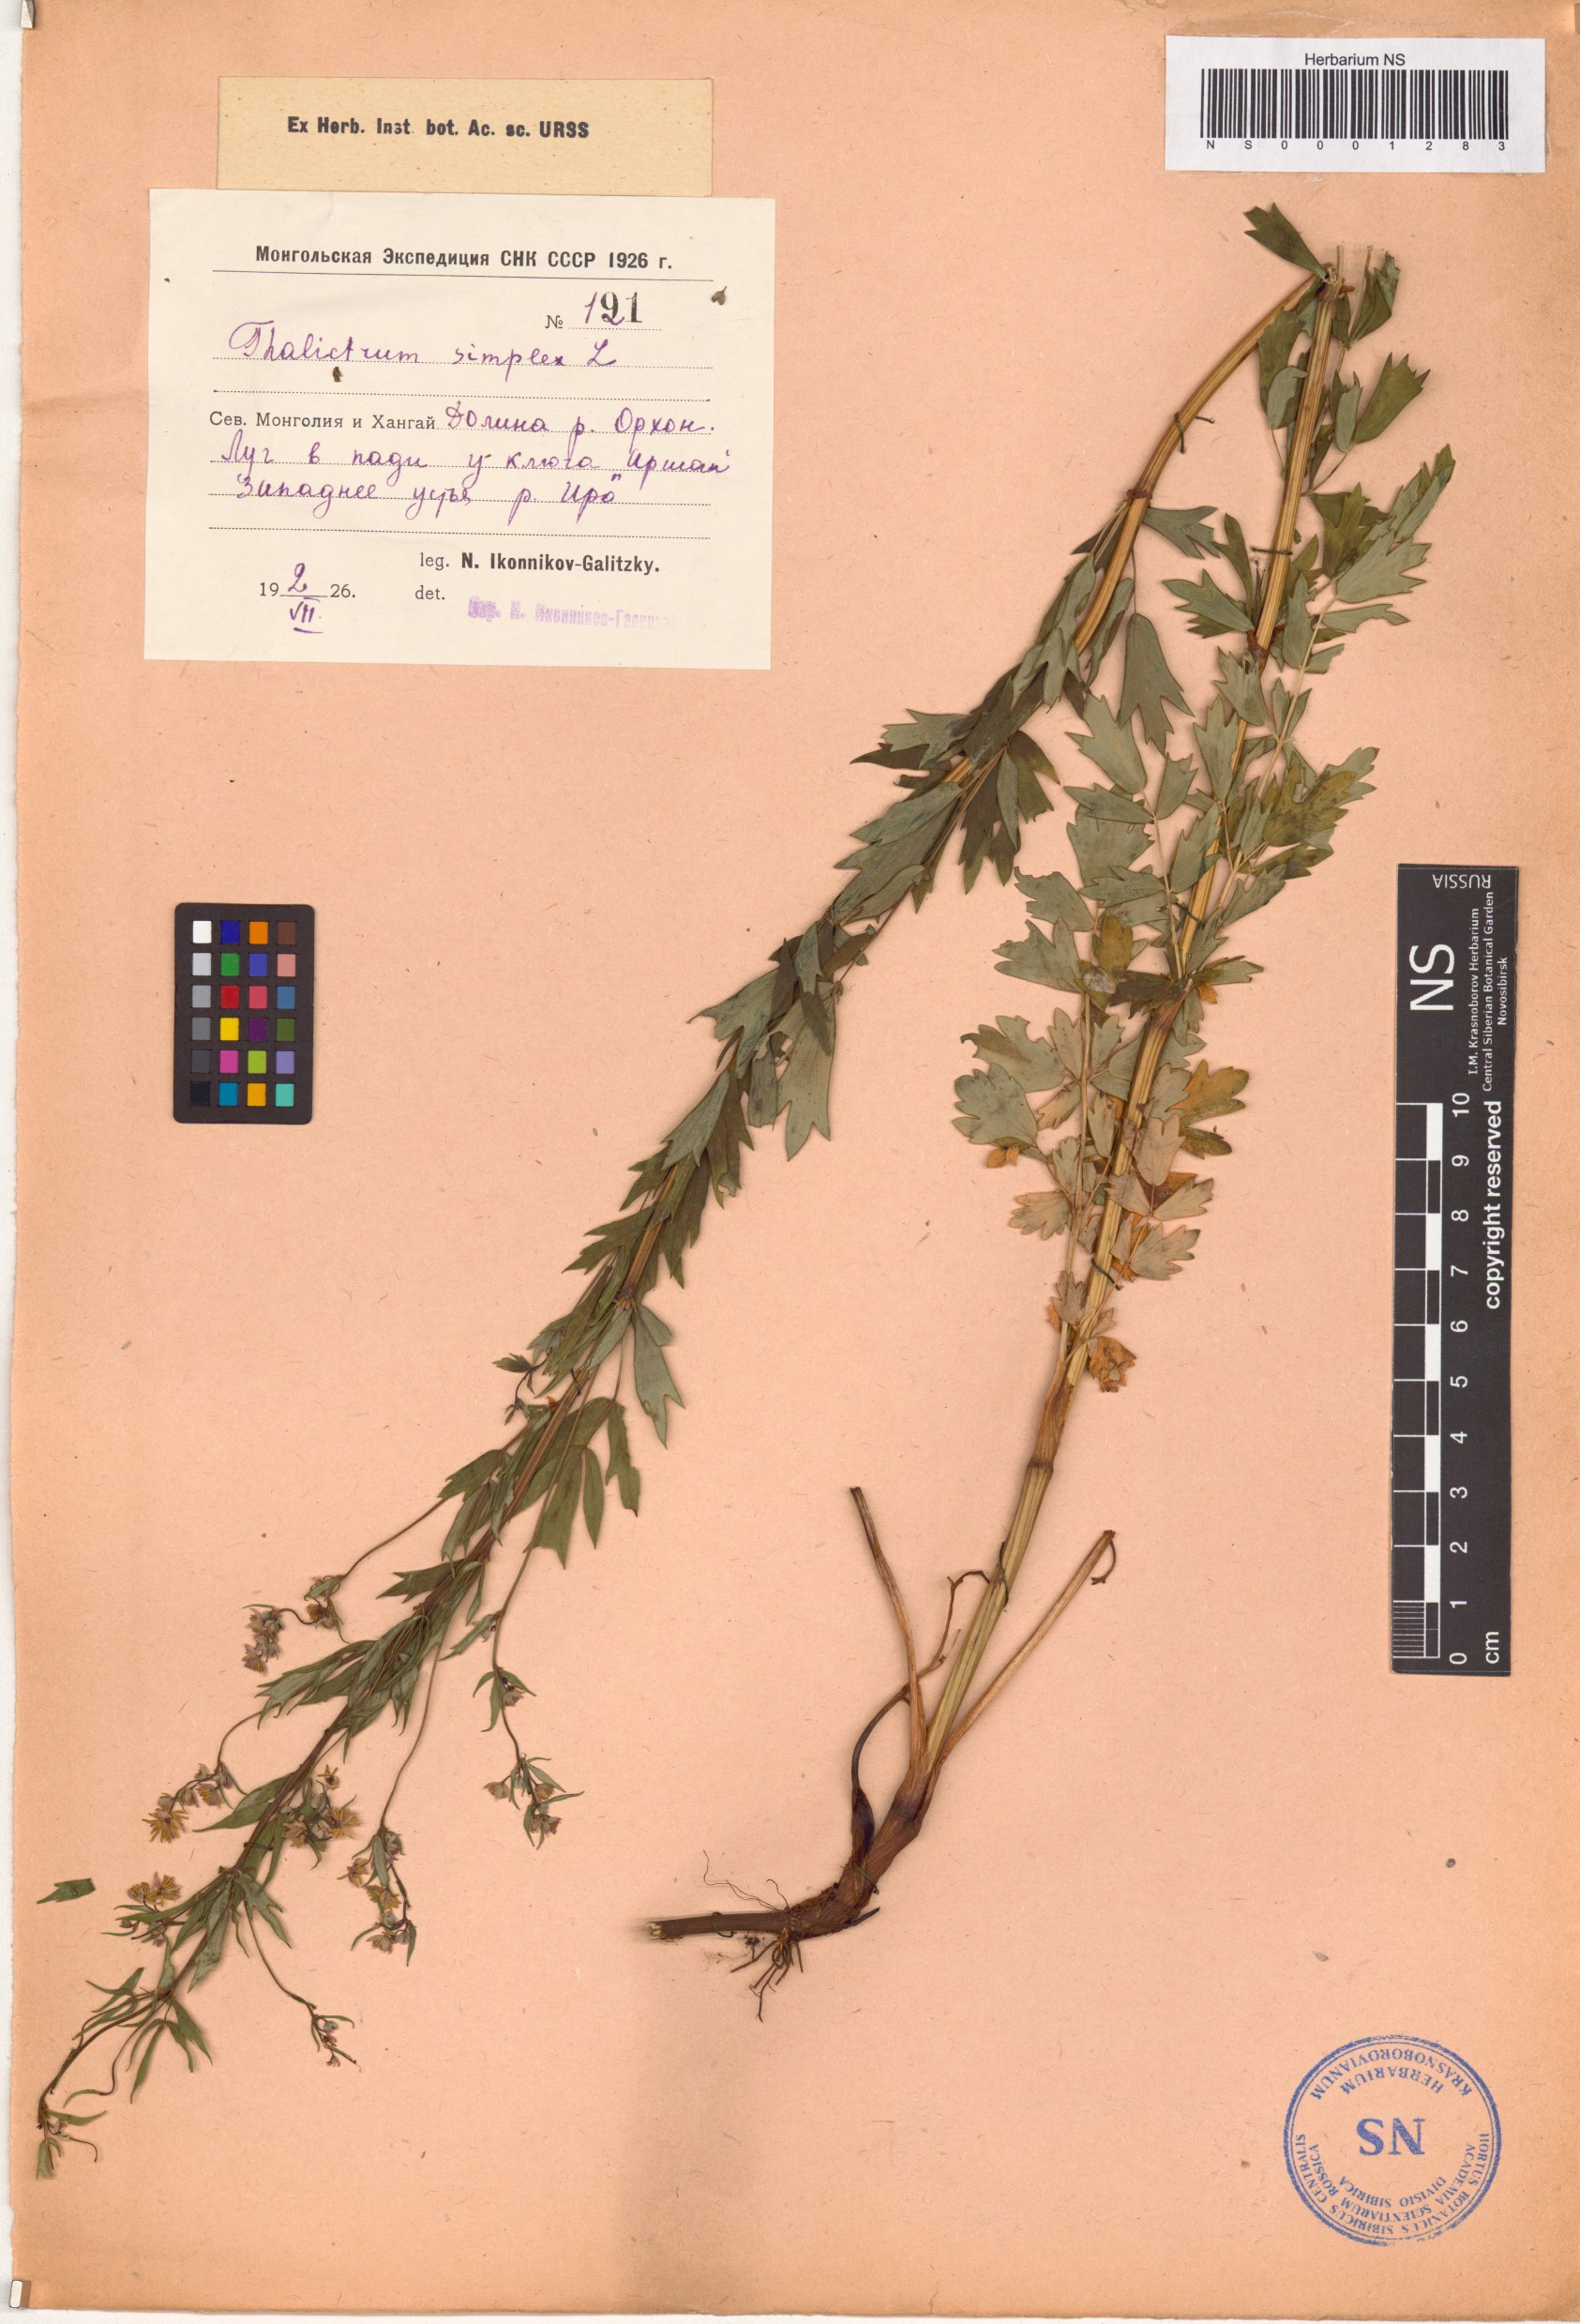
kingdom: Plantae
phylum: Tracheophyta
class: Magnoliopsida
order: Ranunculales
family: Ranunculaceae
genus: Thalictrum
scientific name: Thalictrum simplex
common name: Small meadow-rue
